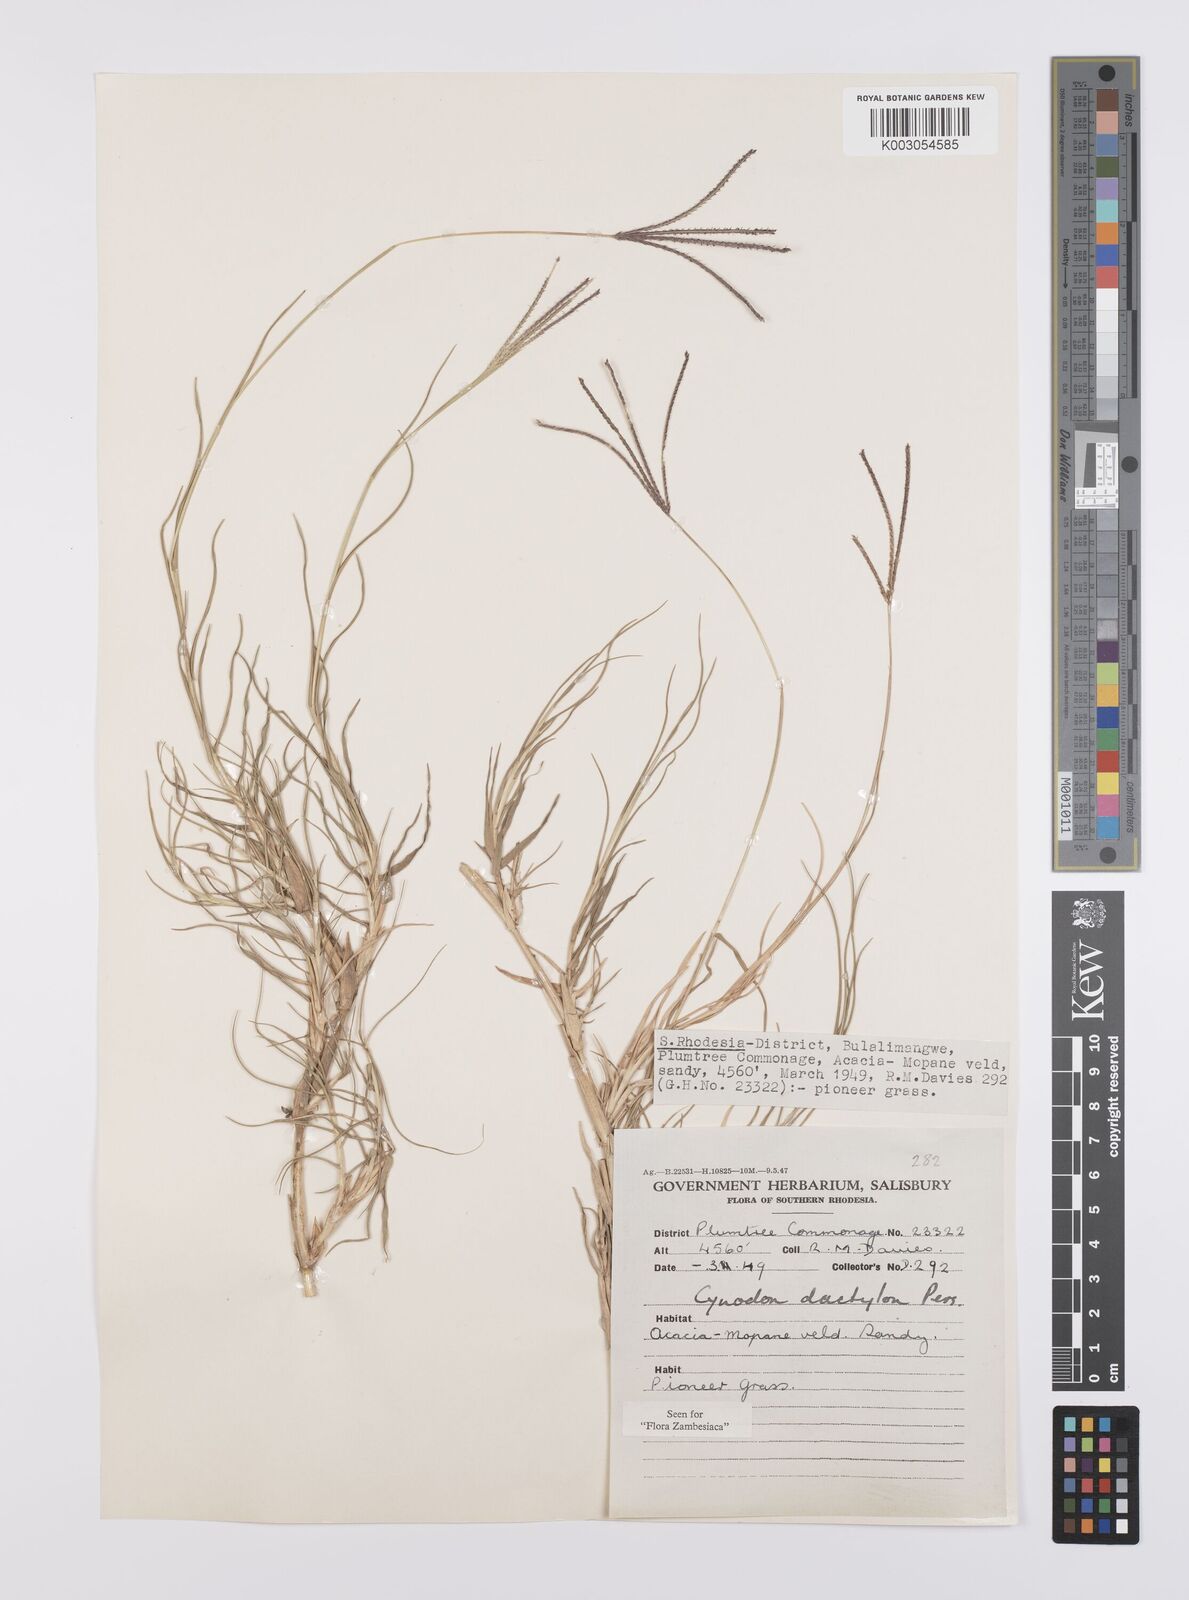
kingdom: Plantae
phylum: Tracheophyta
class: Liliopsida
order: Poales
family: Poaceae
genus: Cynodon
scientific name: Cynodon dactylon
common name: Bermuda grass
